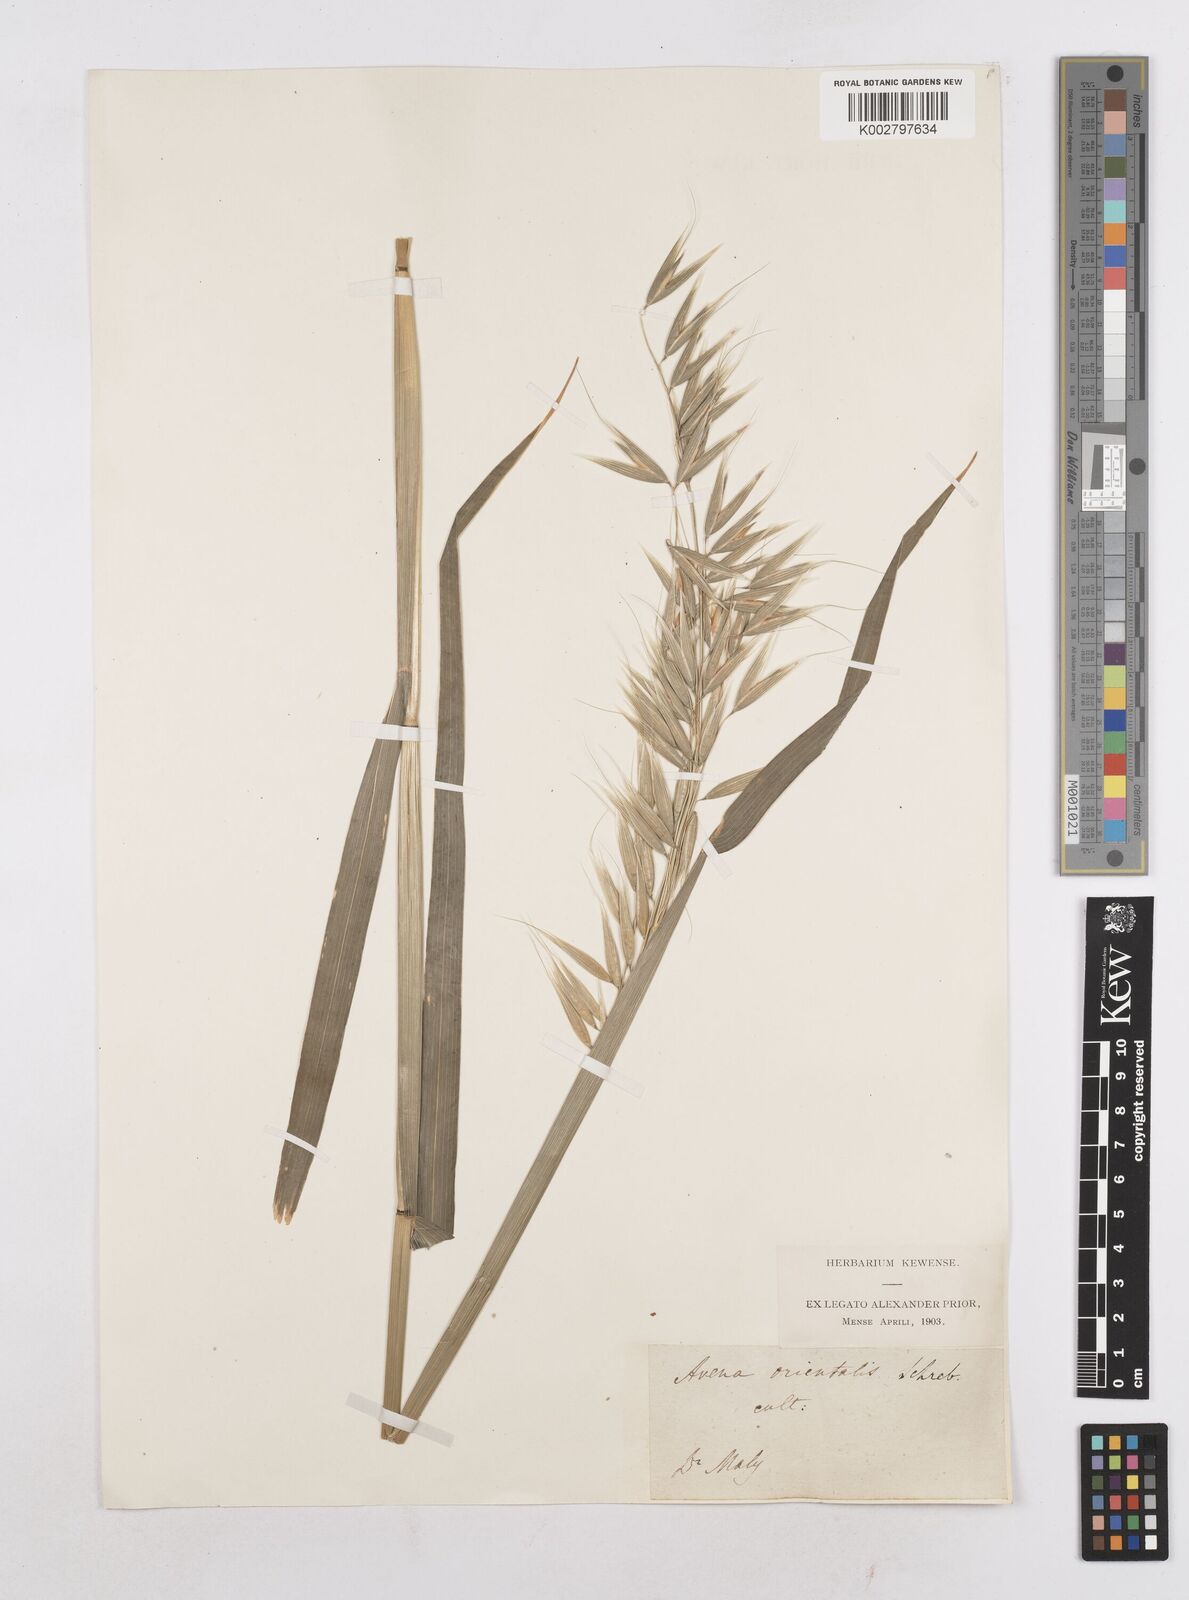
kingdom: Plantae
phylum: Tracheophyta
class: Liliopsida
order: Poales
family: Poaceae
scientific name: Poaceae
